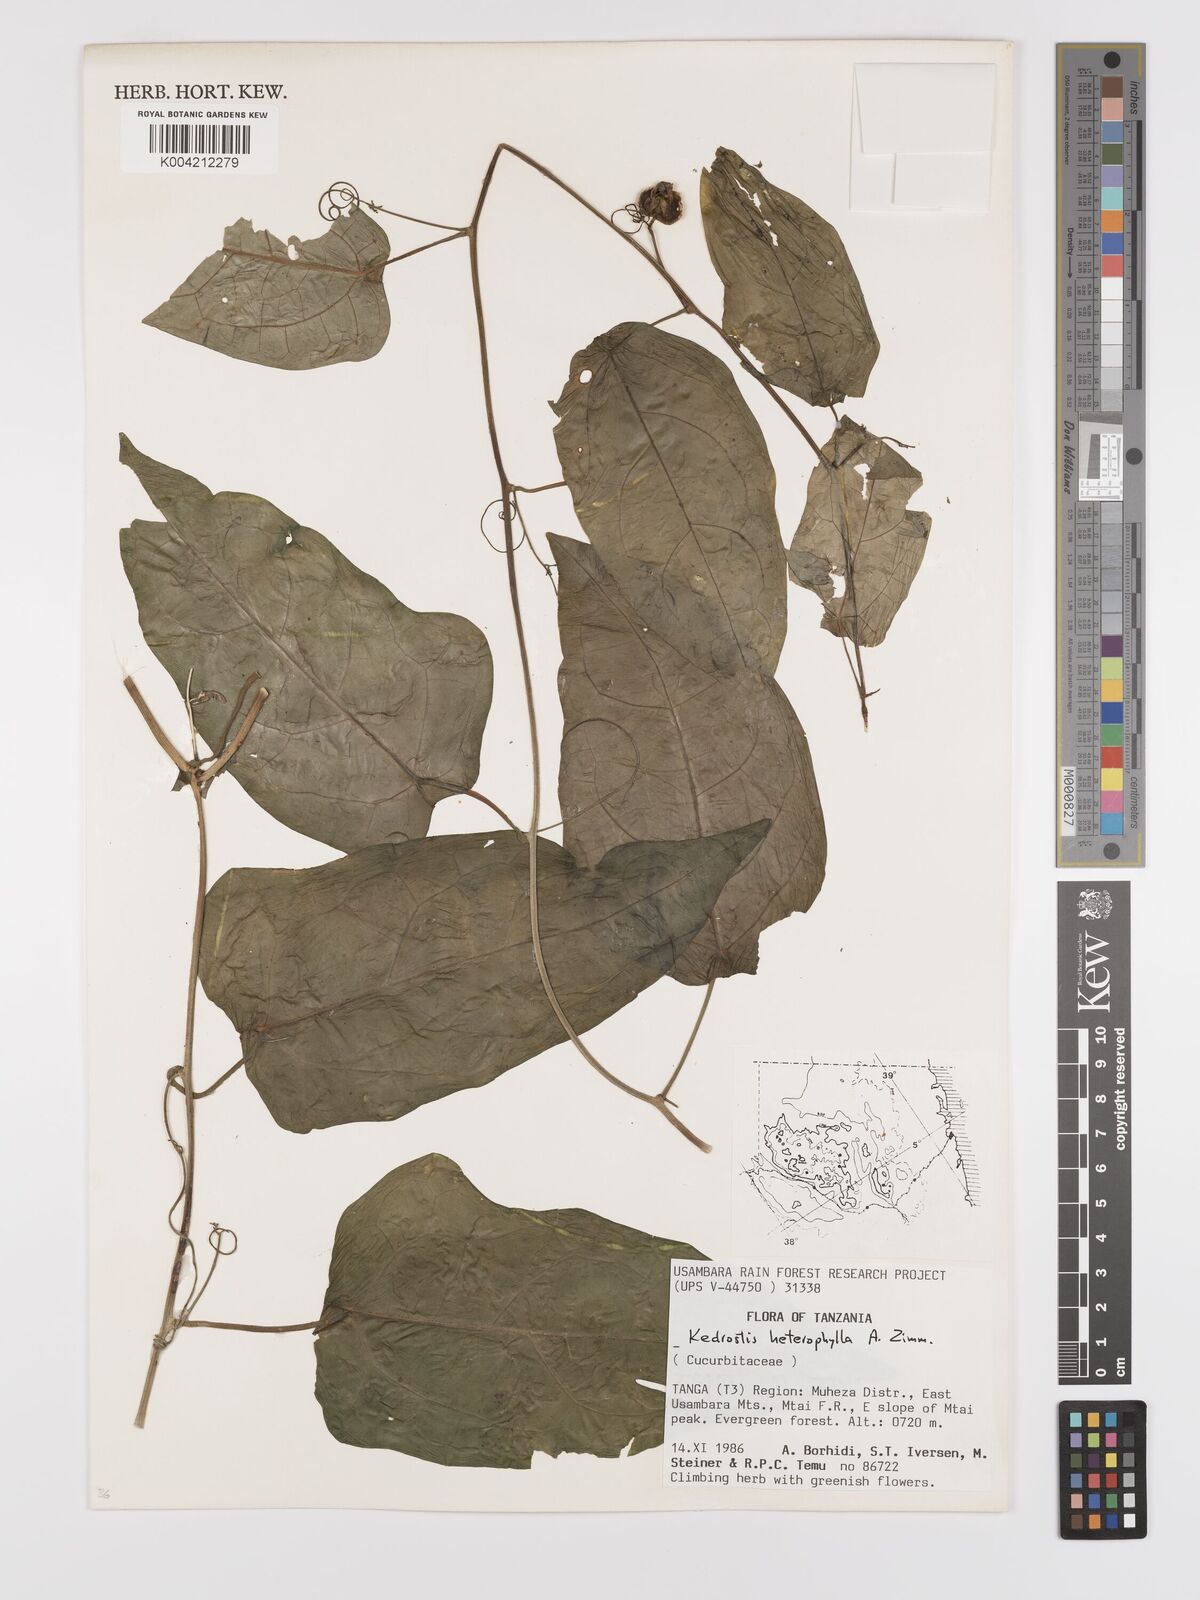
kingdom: Plantae
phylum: Tracheophyta
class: Magnoliopsida
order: Cucurbitales
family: Cucurbitaceae
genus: Kedrostis
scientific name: Kedrostis heterophylla
